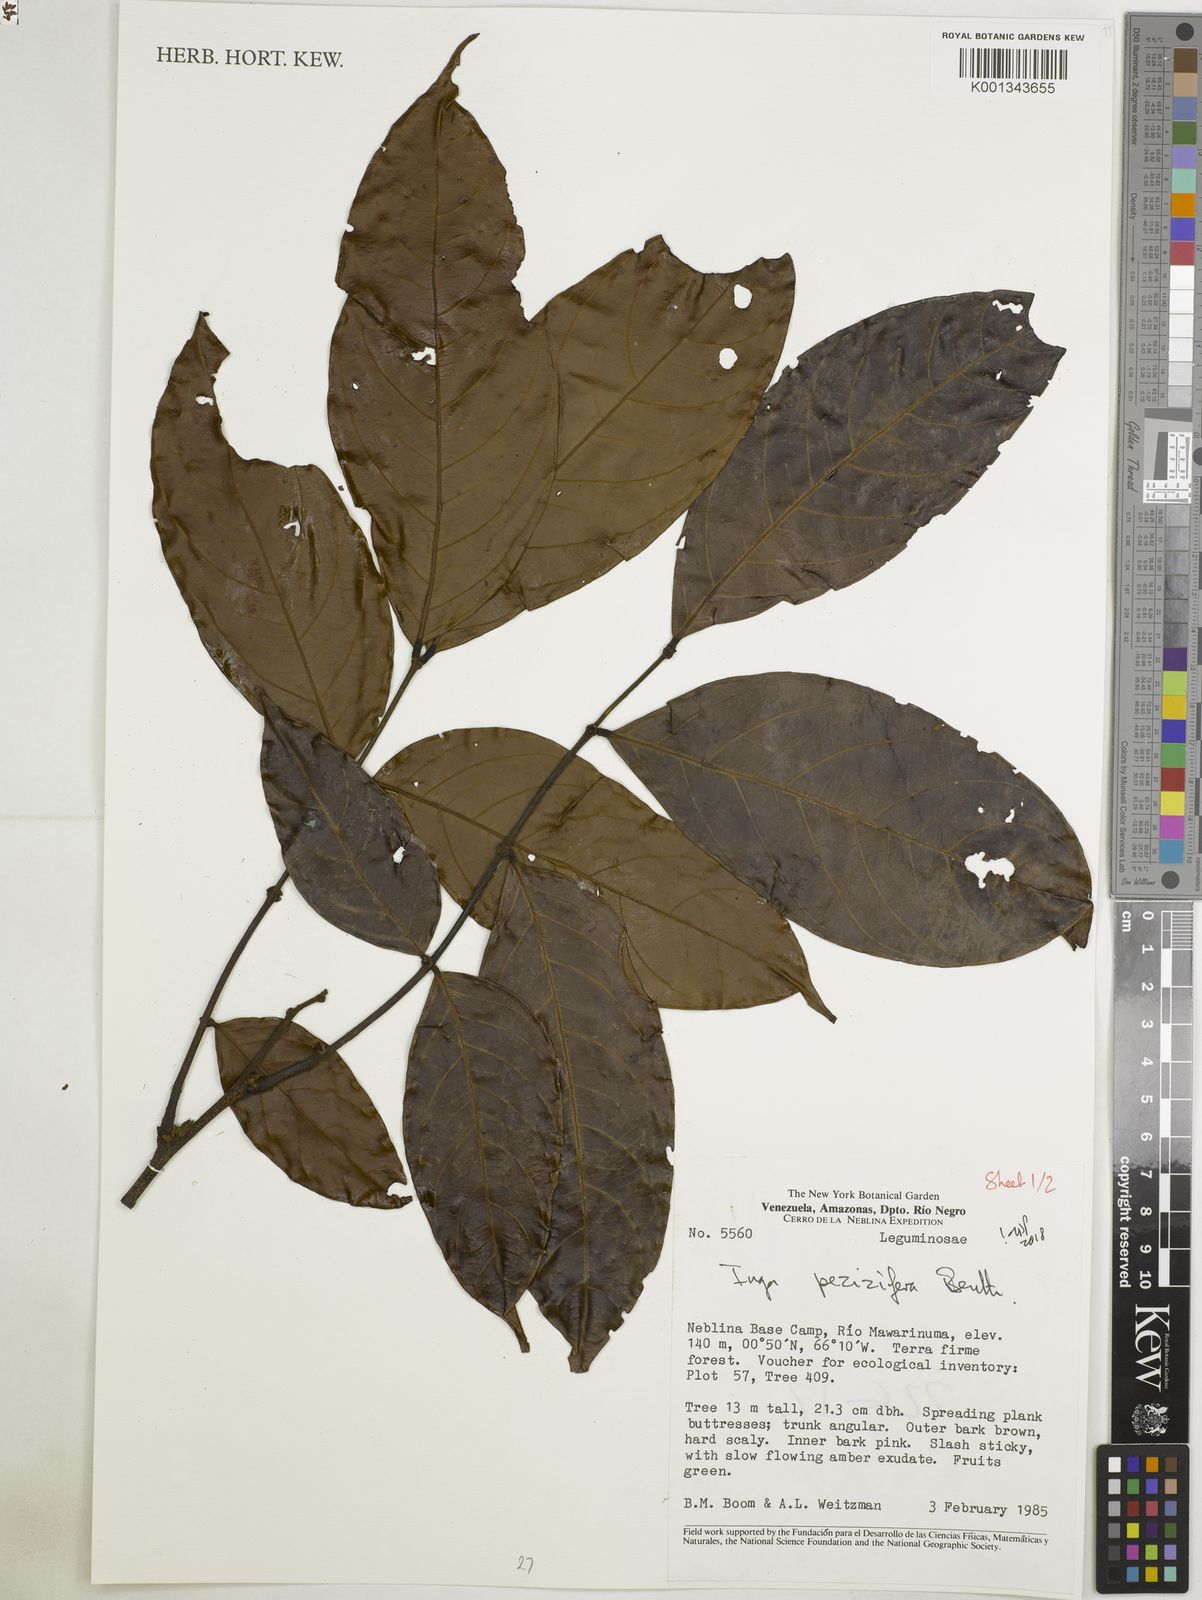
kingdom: Plantae
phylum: Tracheophyta
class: Magnoliopsida
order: Fabales
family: Fabaceae
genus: Inga
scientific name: Inga pezizifera
